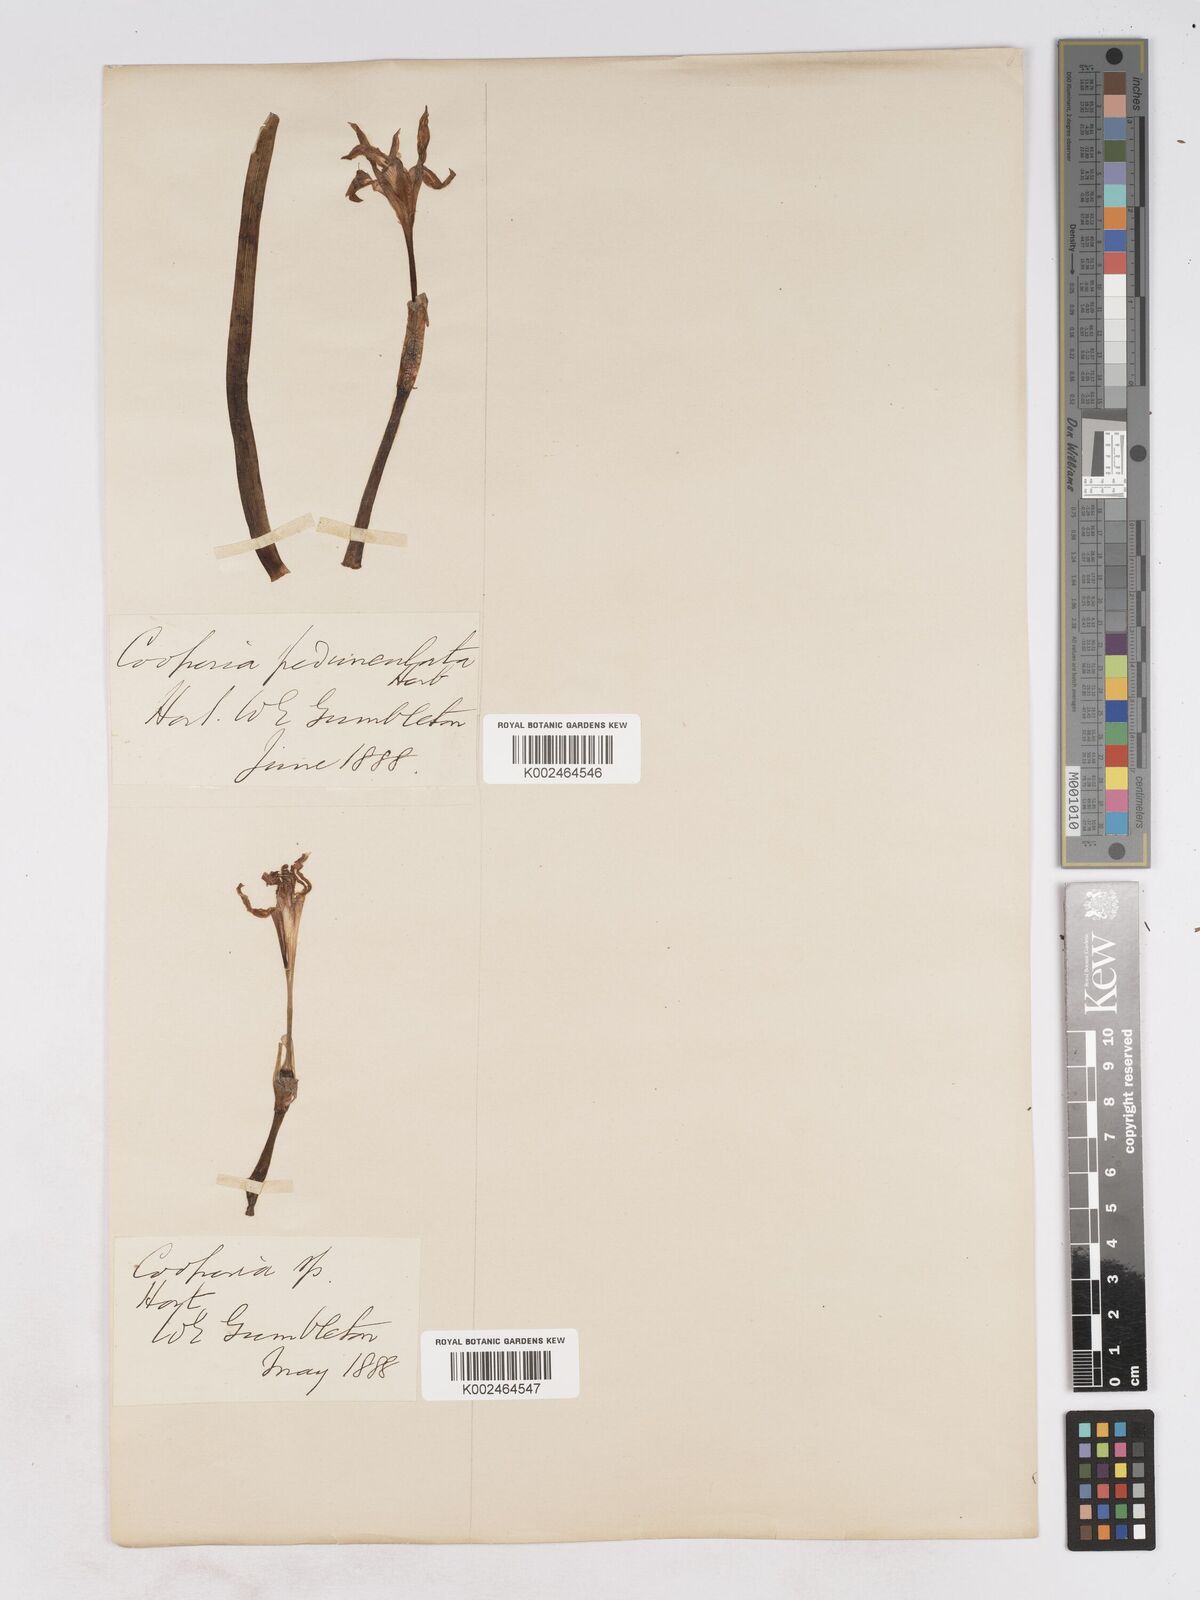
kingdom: Plantae
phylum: Tracheophyta
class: Liliopsida
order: Asparagales
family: Amaryllidaceae
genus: Zephyranthes
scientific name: Zephyranthes drummondii
